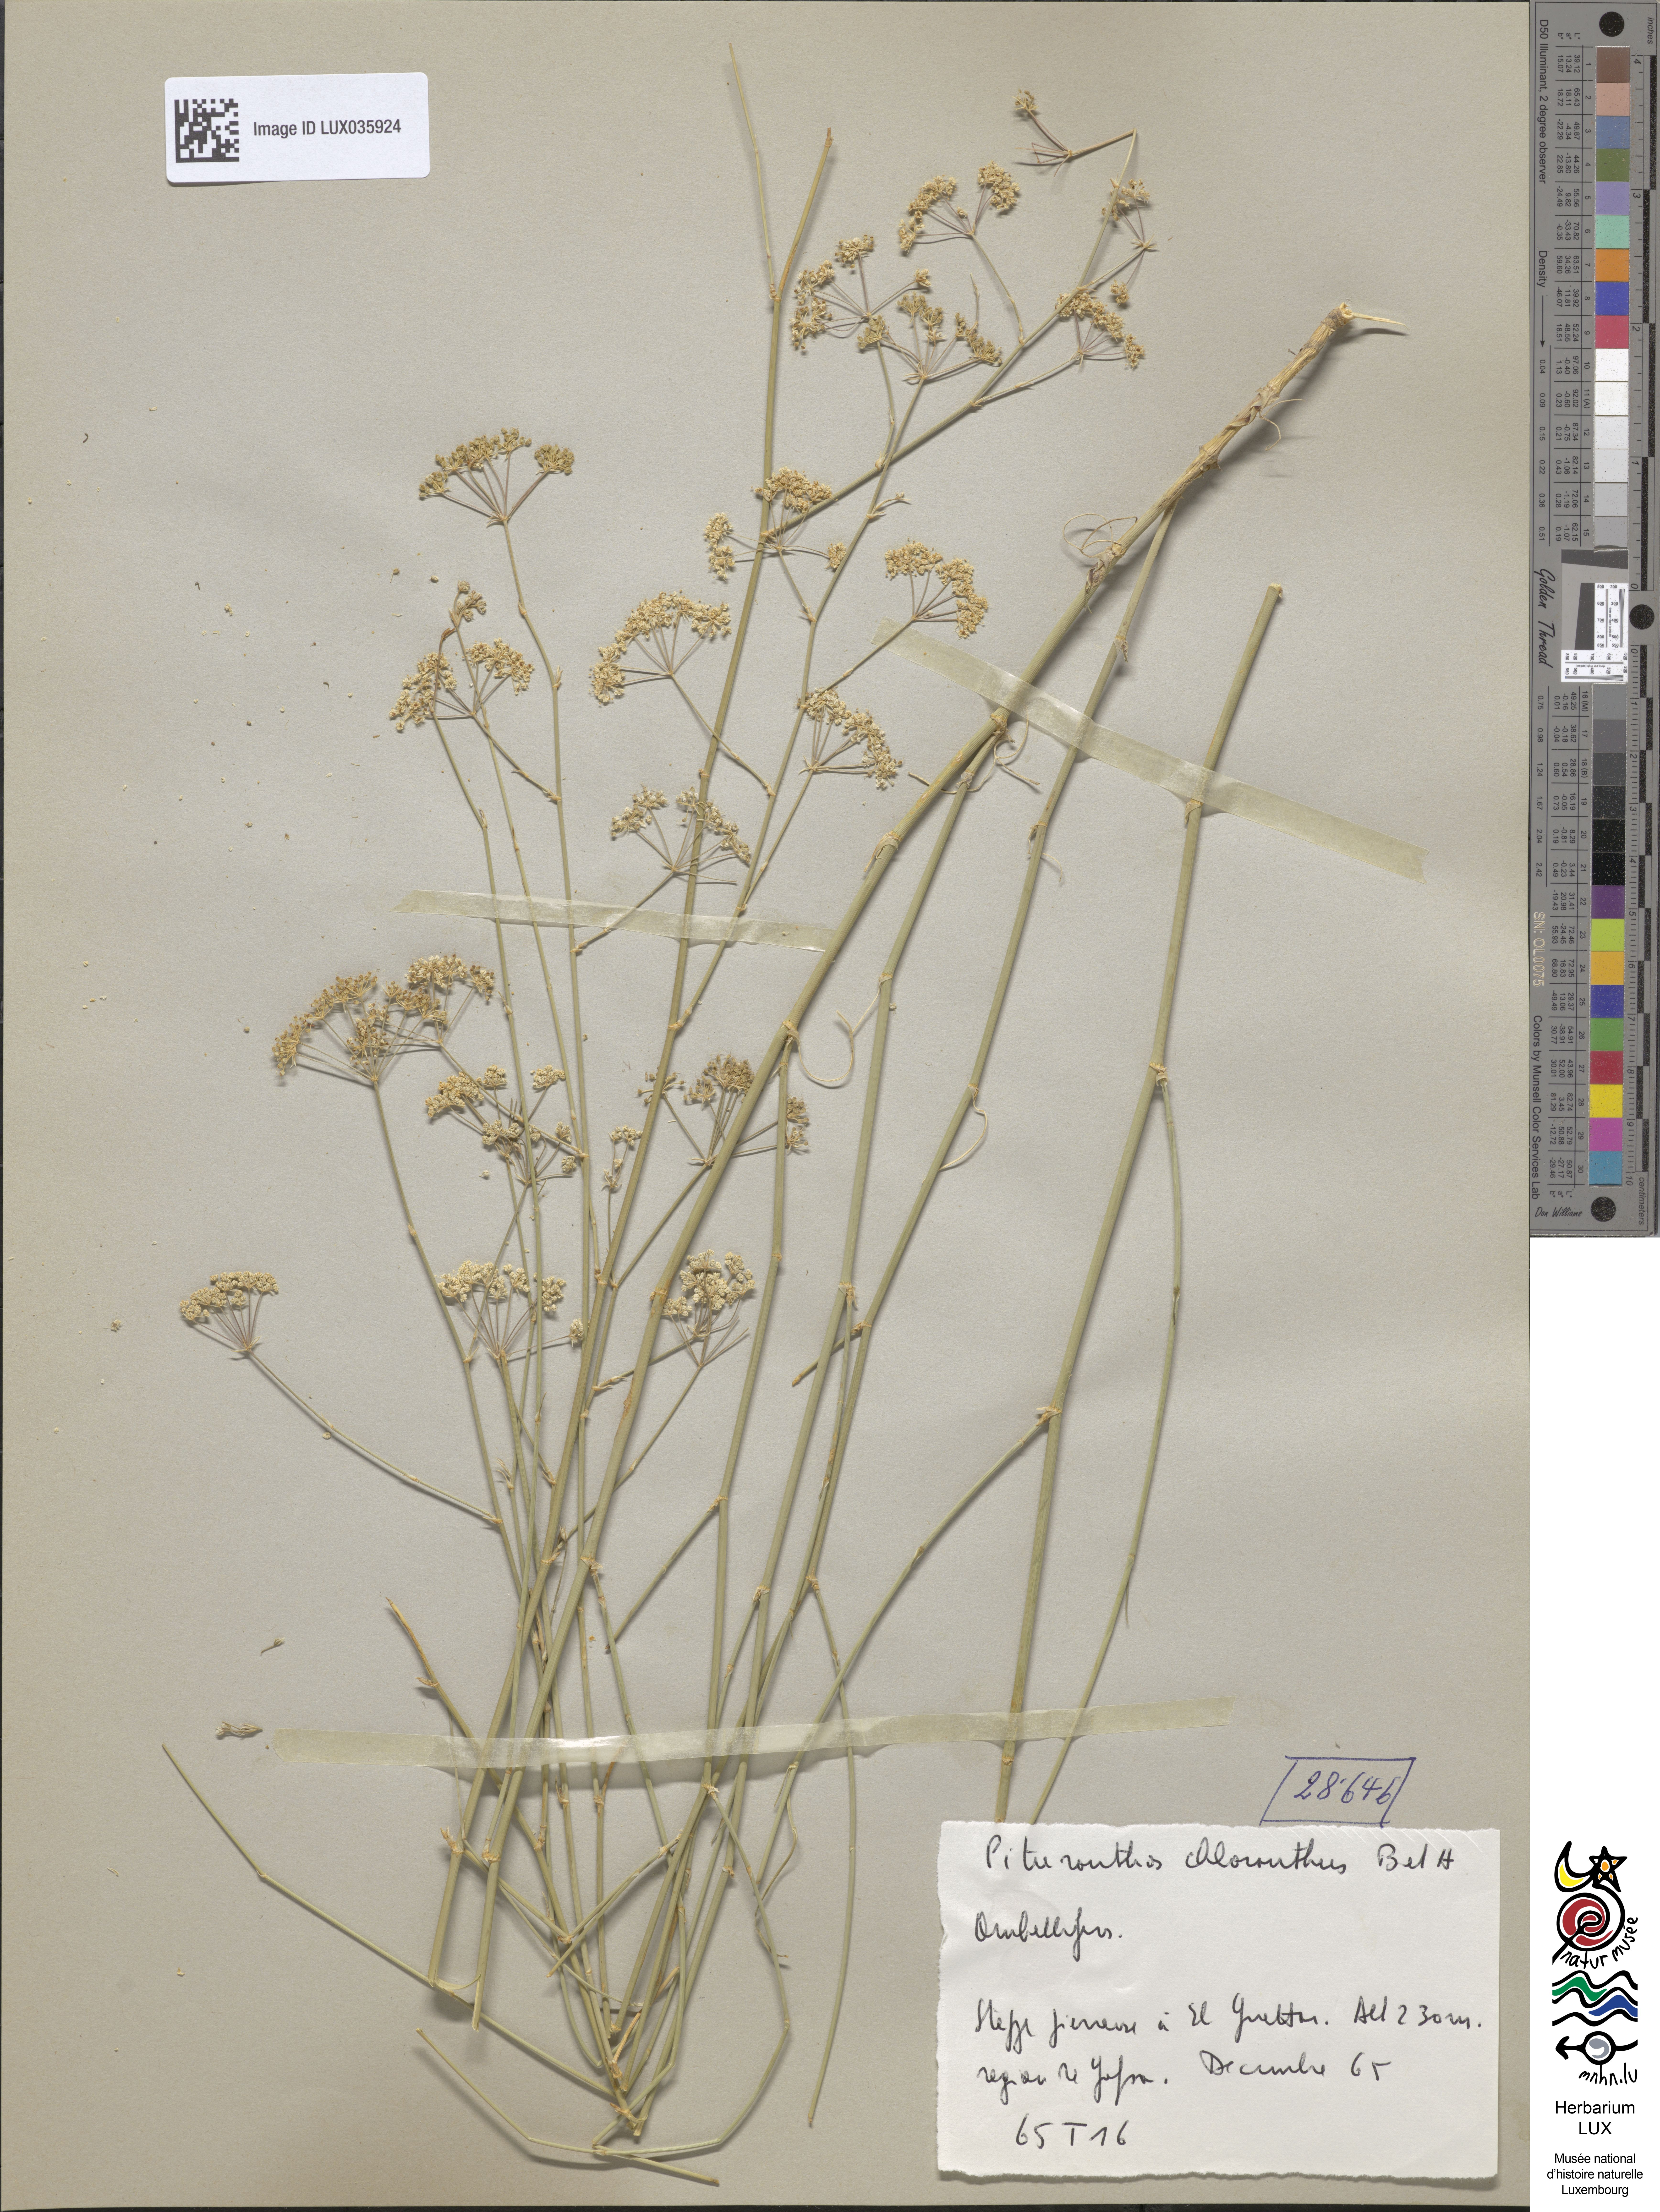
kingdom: Plantae
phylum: Tracheophyta
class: Magnoliopsida
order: Apiales
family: Apiaceae
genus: Deverra
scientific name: Deverra
